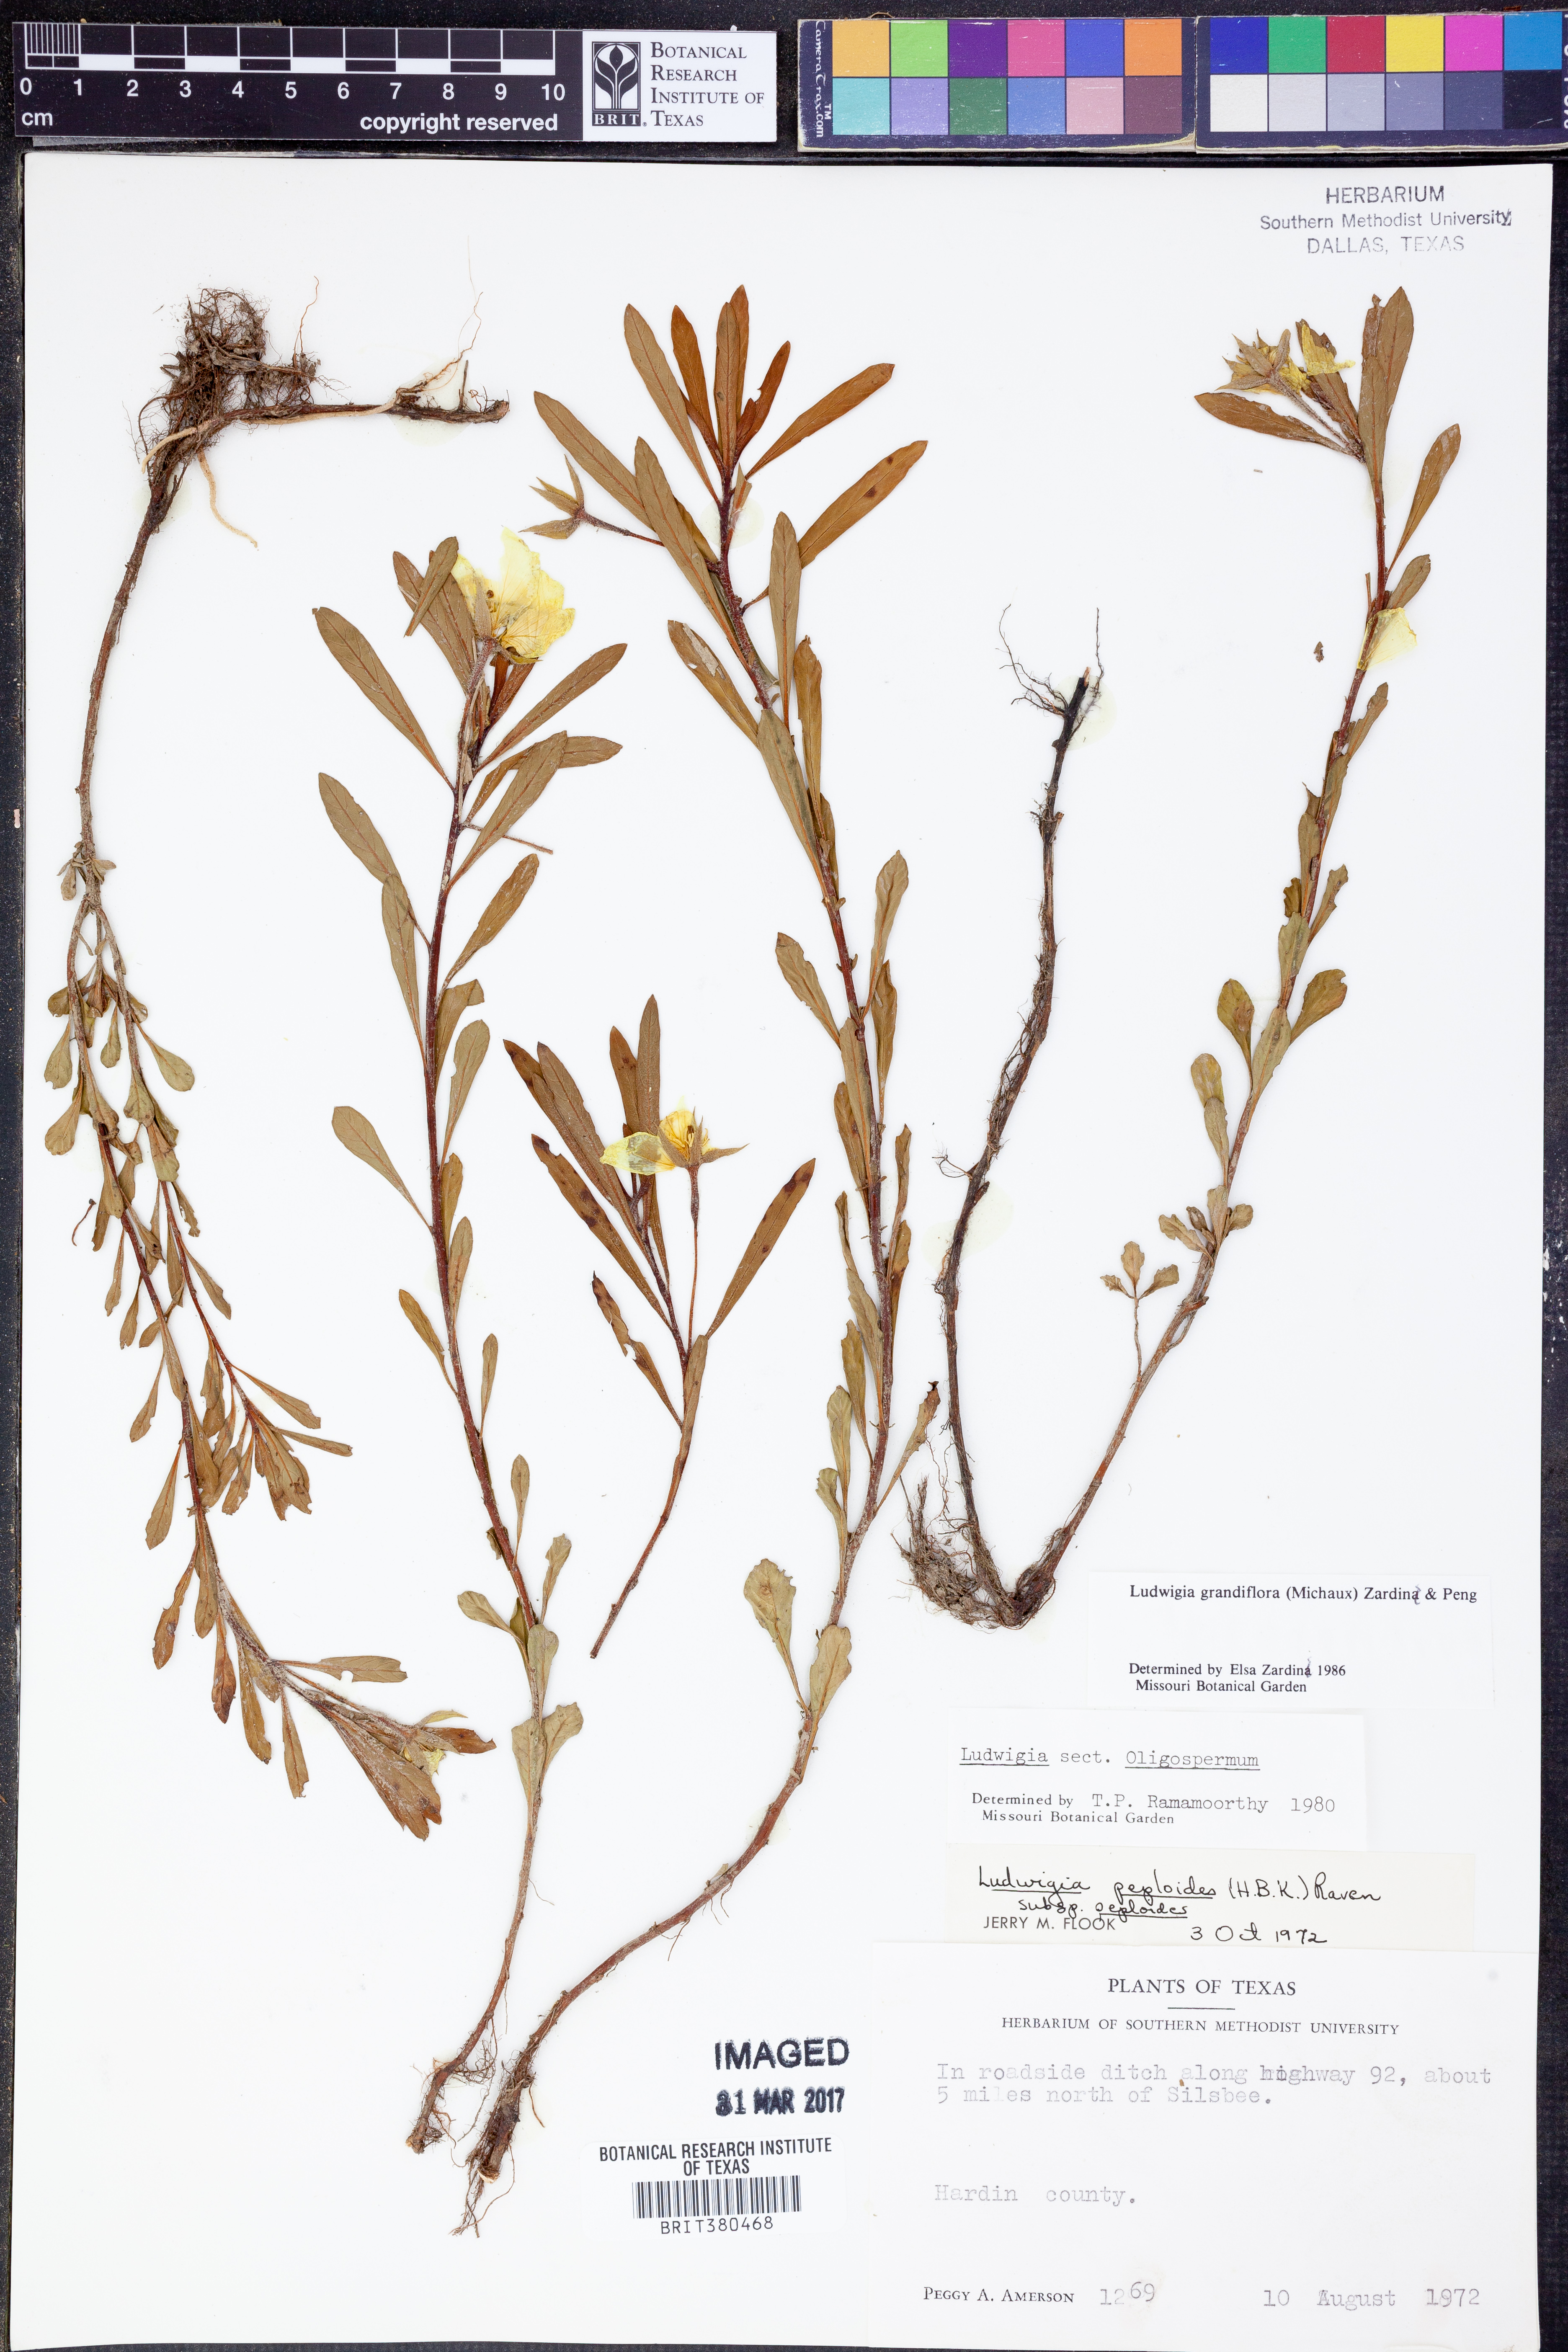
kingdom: Plantae
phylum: Tracheophyta
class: Magnoliopsida
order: Myrtales
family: Onagraceae
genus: Ludwigia
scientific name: Ludwigia grandiflora
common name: Water primrose
